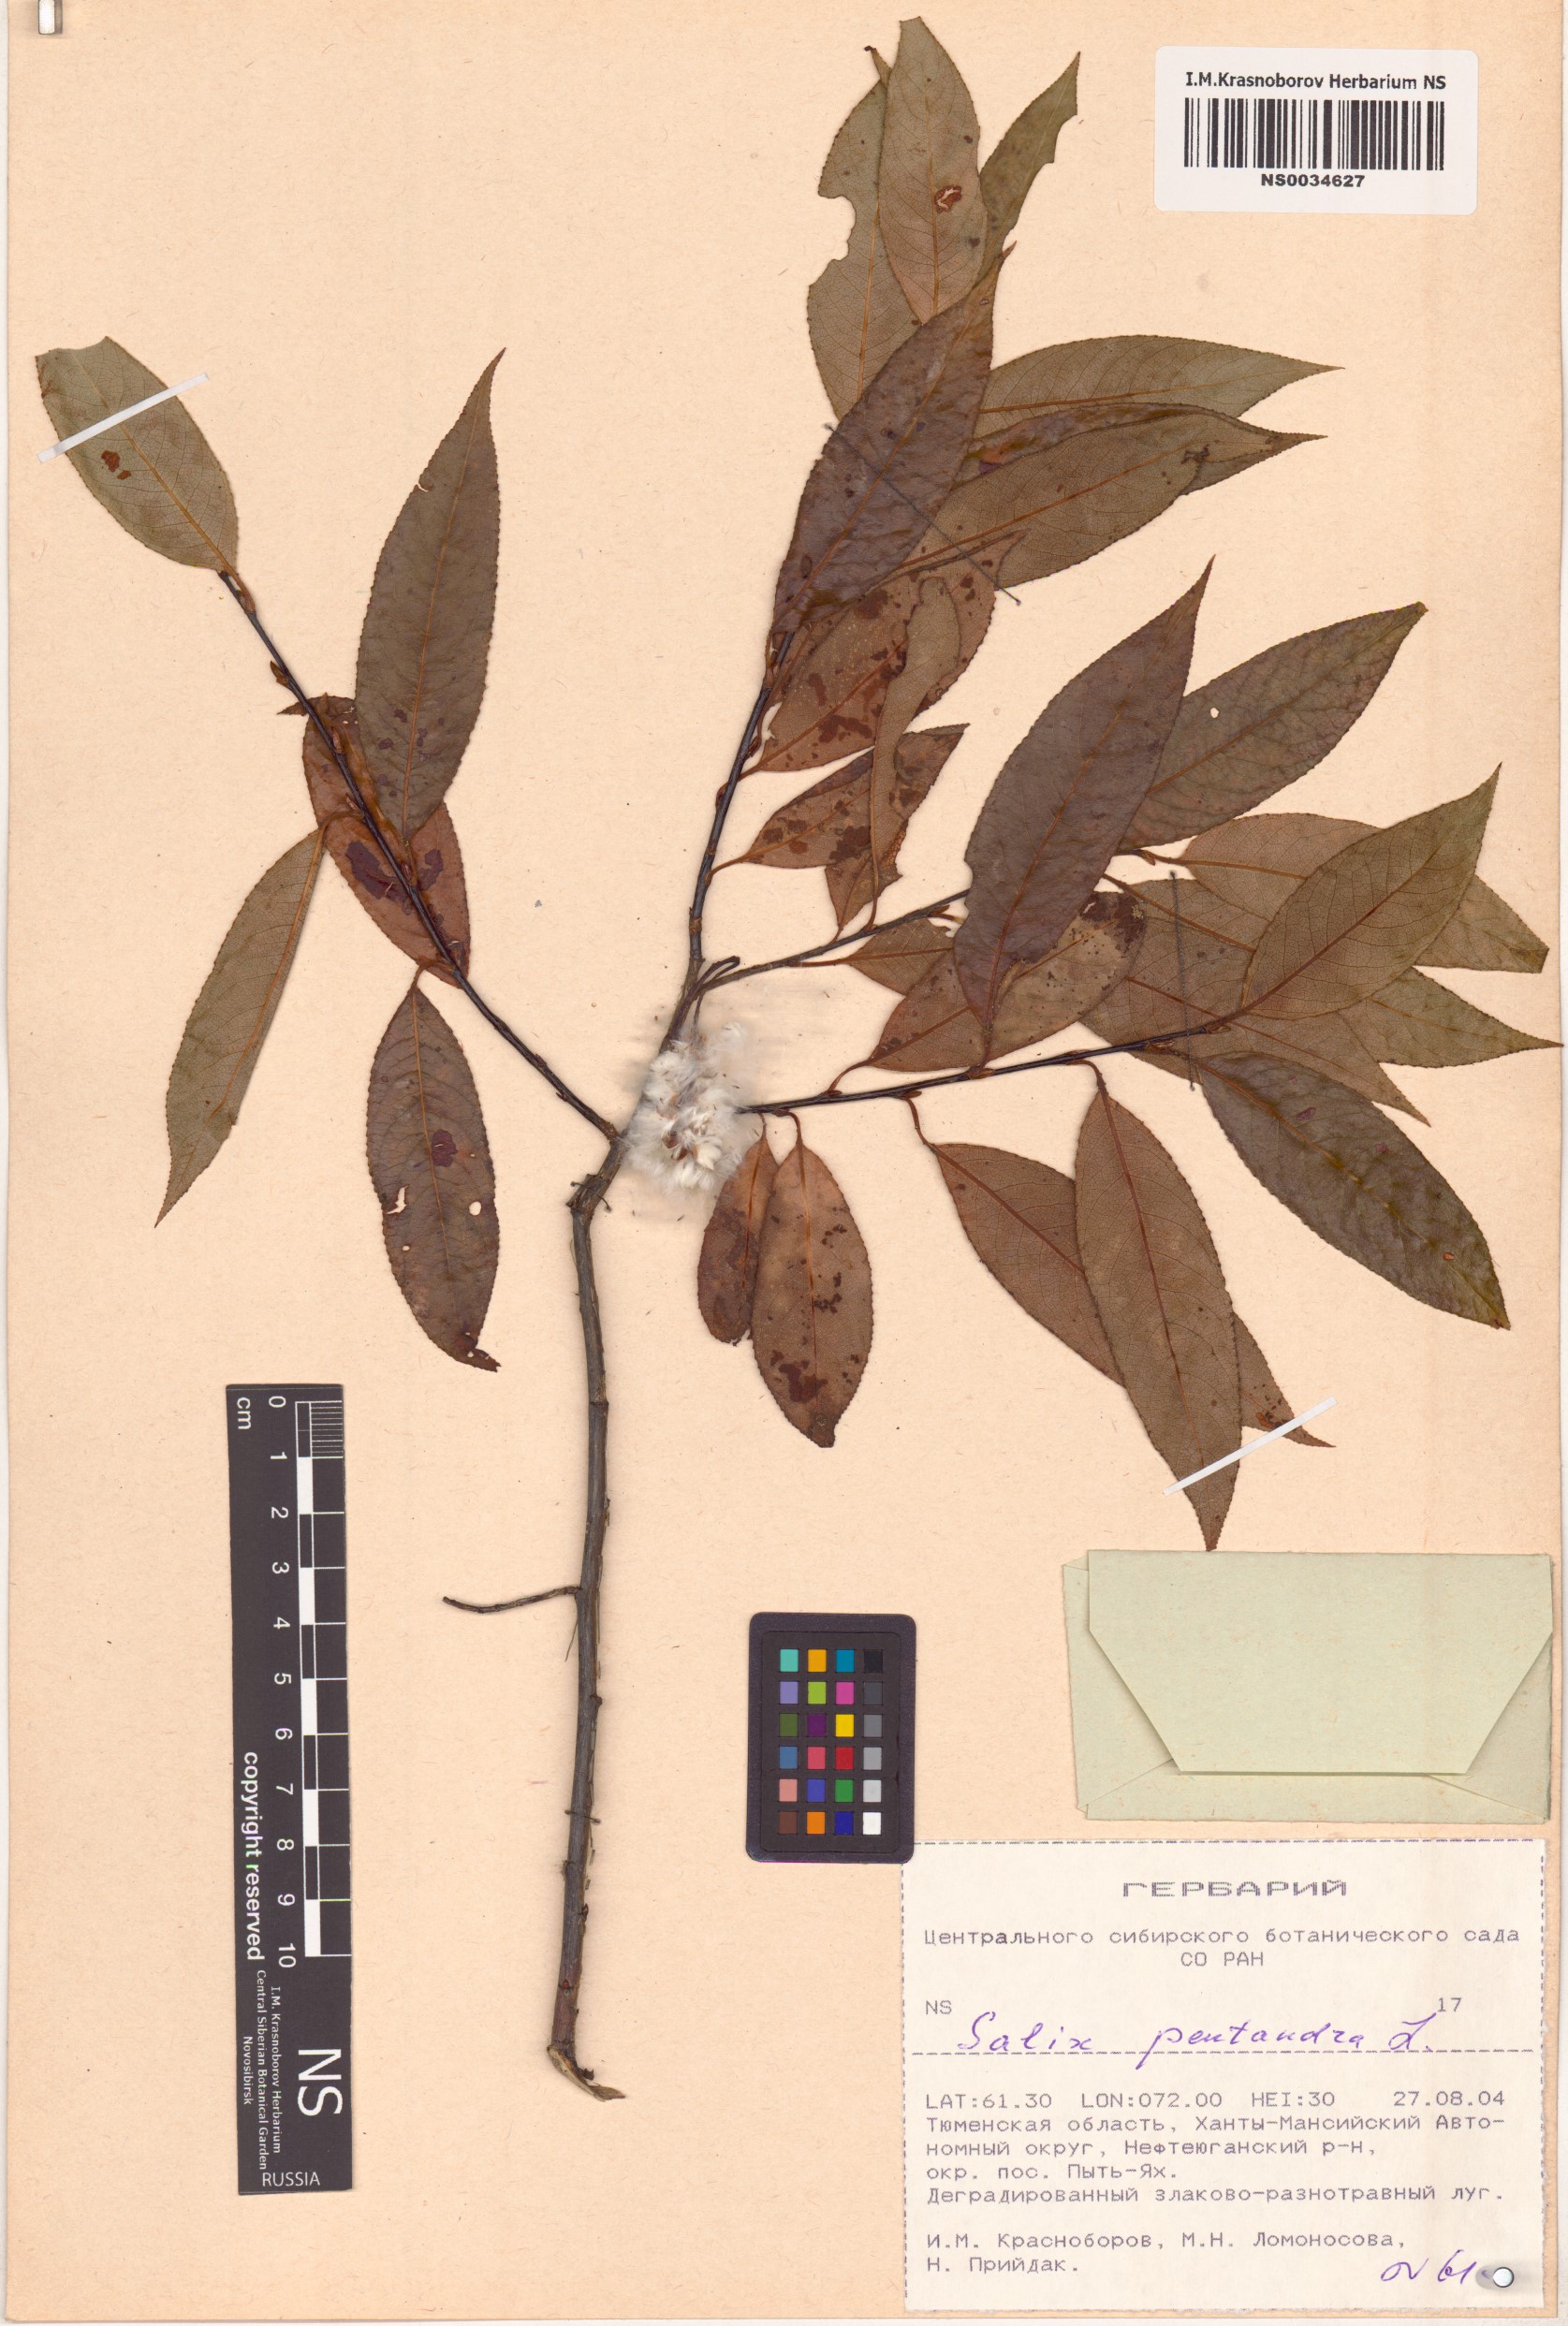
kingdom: Plantae
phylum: Tracheophyta
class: Magnoliopsida
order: Malpighiales
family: Salicaceae
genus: Salix
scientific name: Salix pentandra
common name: Bay willow
